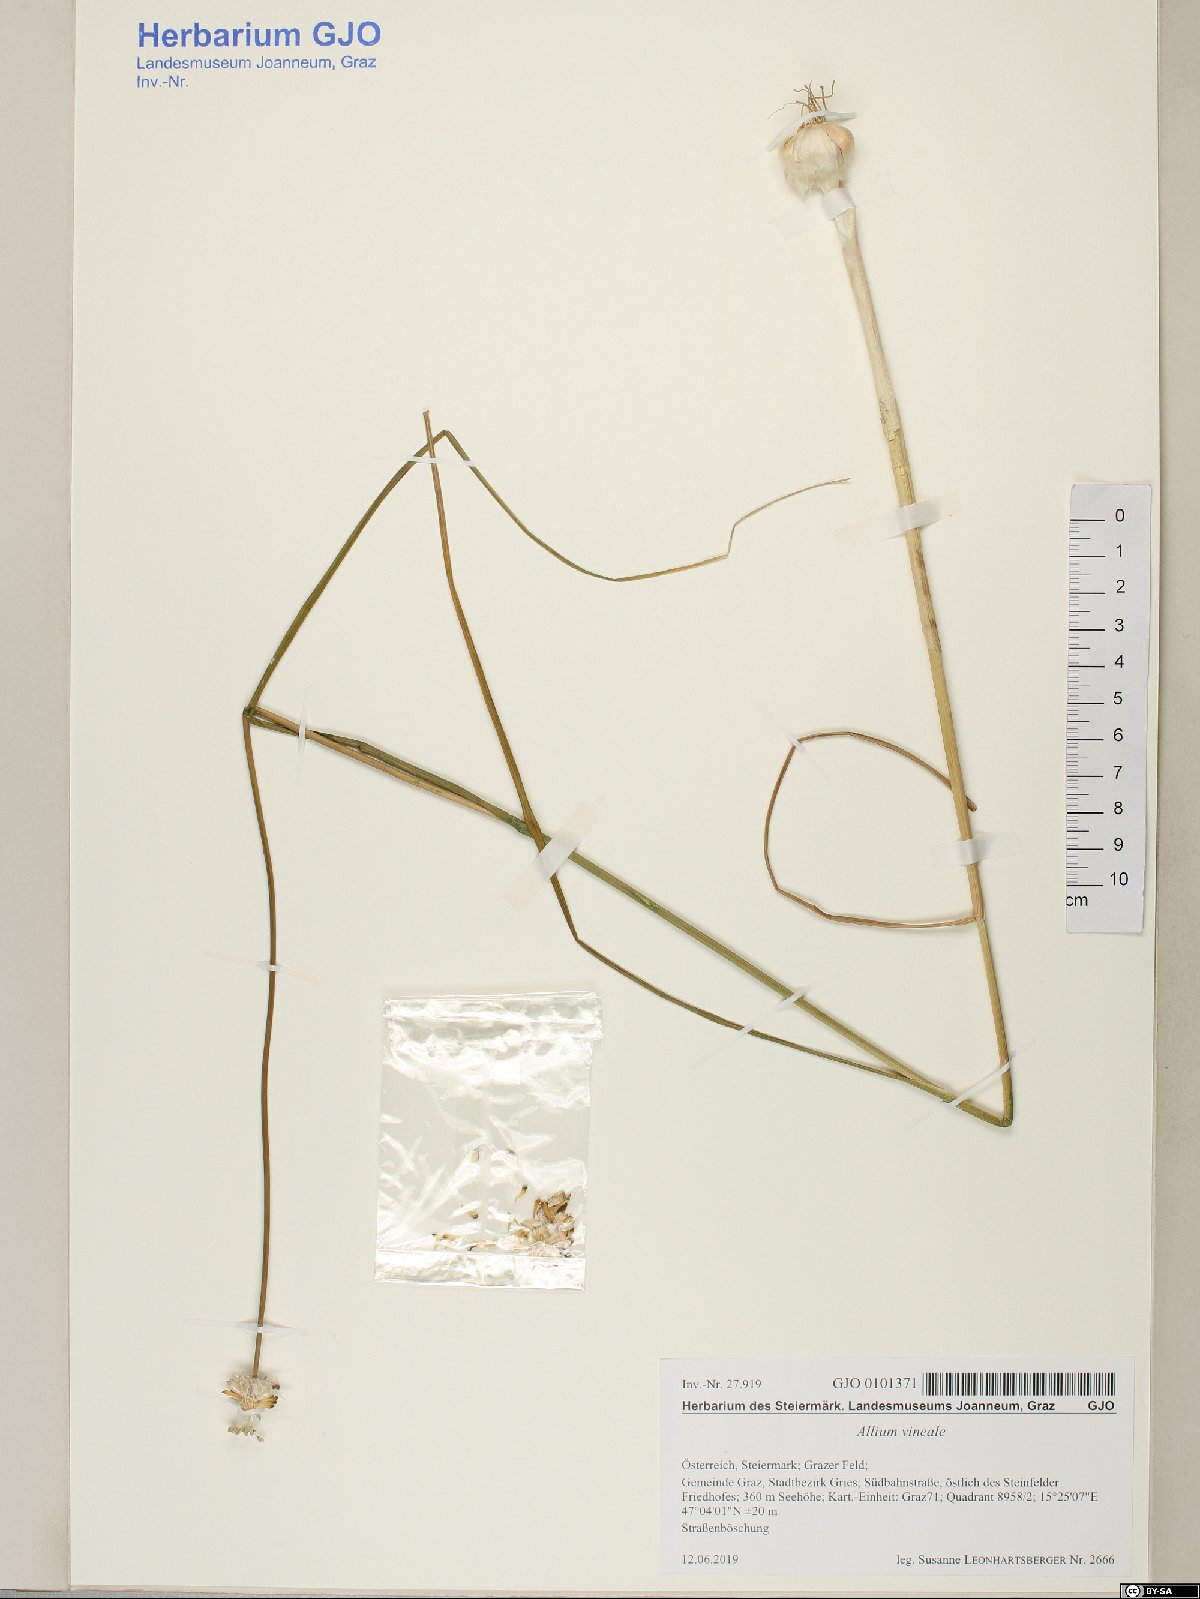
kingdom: Plantae
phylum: Tracheophyta
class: Liliopsida
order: Asparagales
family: Amaryllidaceae
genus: Allium
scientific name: Allium vineale
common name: Crow garlic
